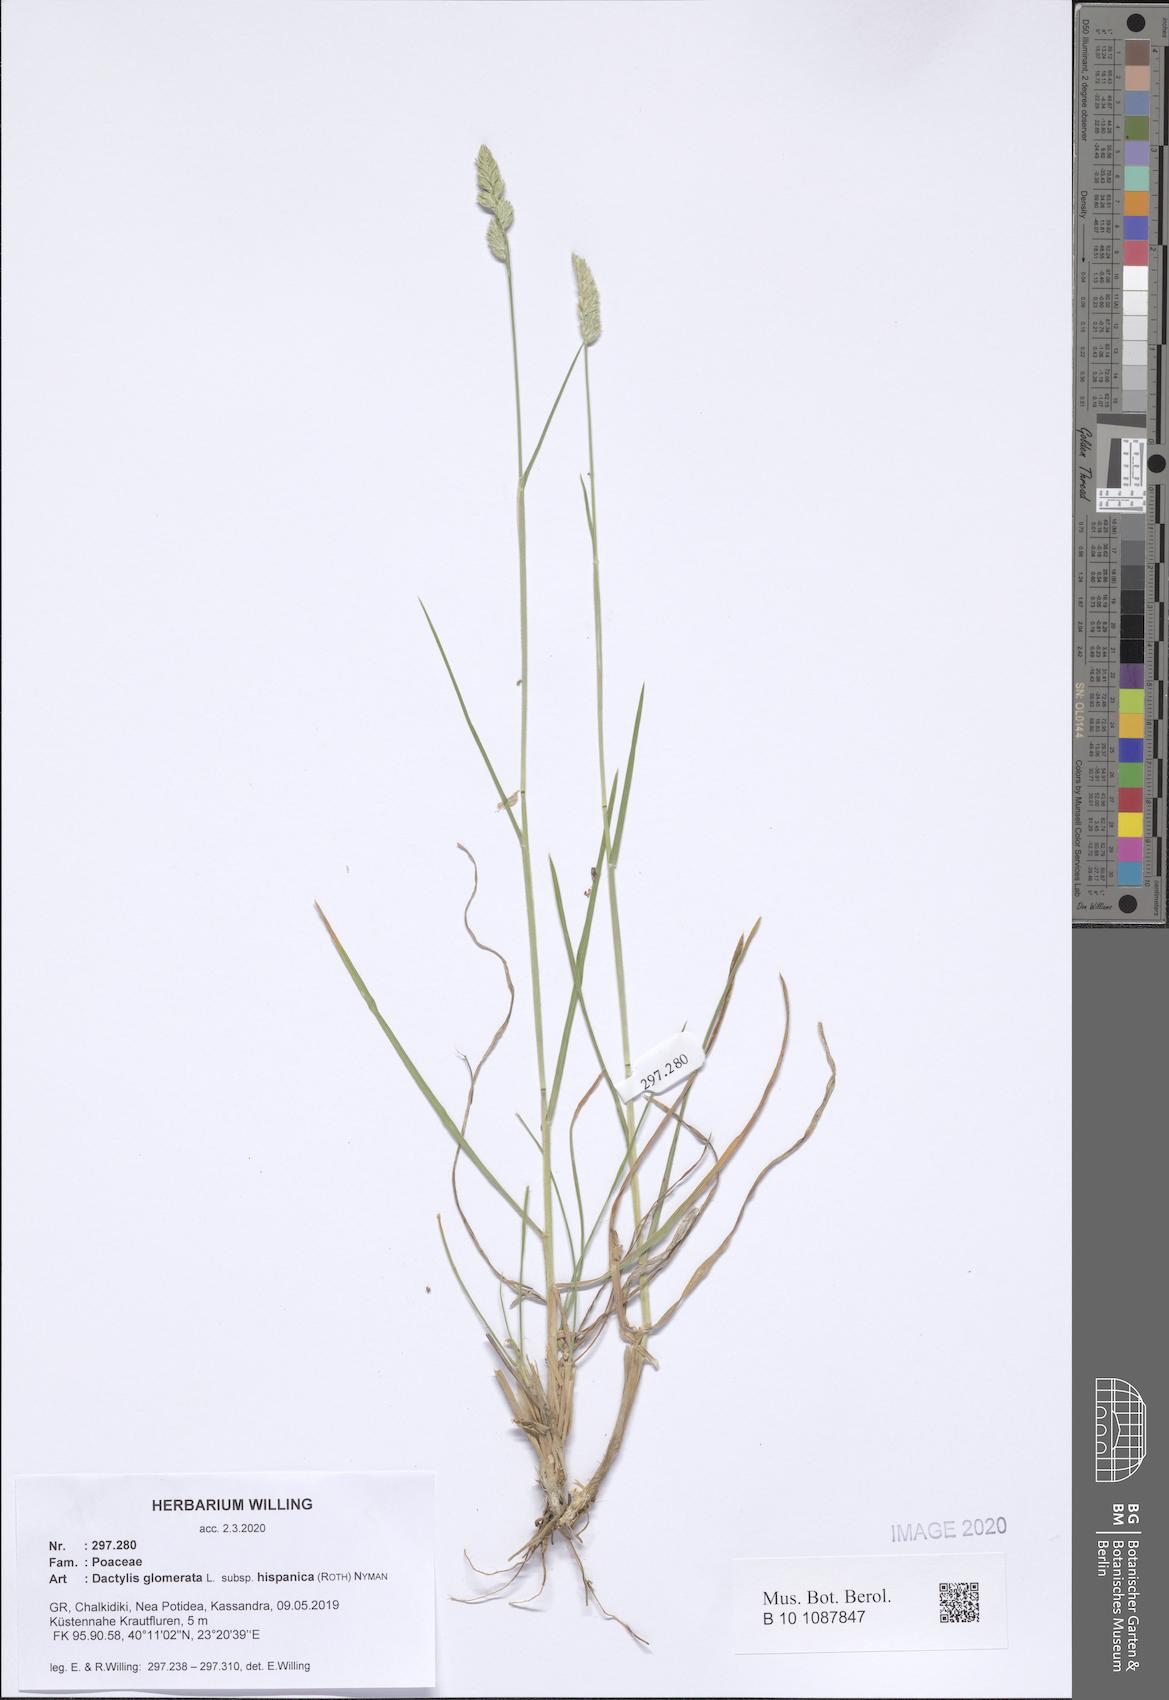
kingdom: Plantae
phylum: Tracheophyta
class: Liliopsida
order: Poales
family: Poaceae
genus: Dactylis
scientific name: Dactylis glomerata
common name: Orchardgrass
